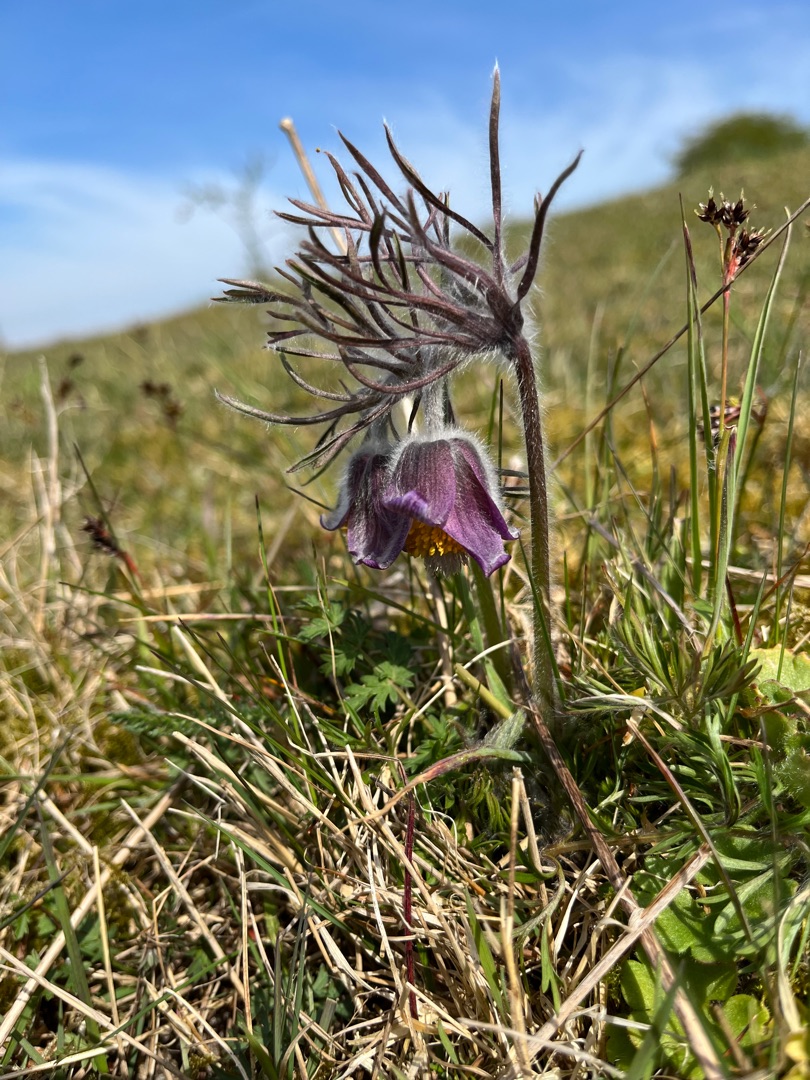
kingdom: Plantae
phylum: Tracheophyta
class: Magnoliopsida
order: Ranunculales
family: Ranunculaceae
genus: Pulsatilla
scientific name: Pulsatilla pratensis
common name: Nikkende kobjælde
